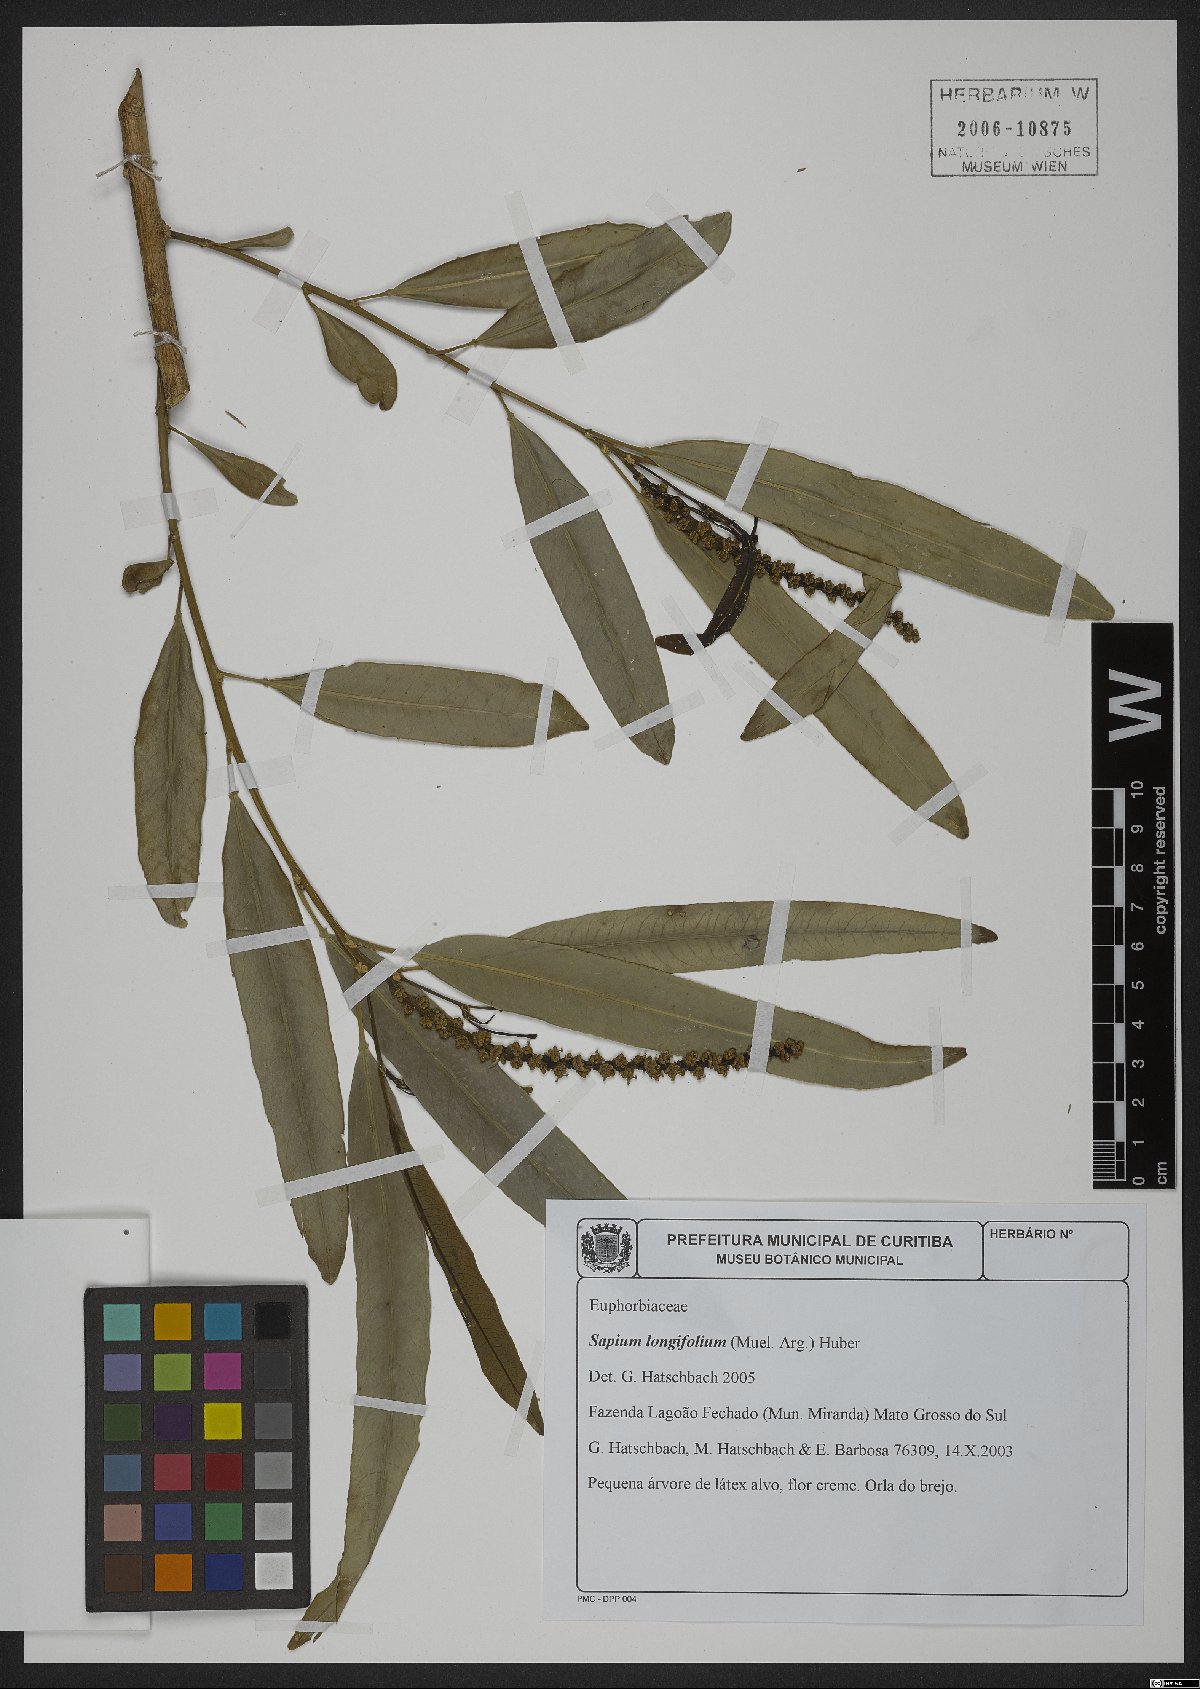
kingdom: Plantae
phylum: Tracheophyta
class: Magnoliopsida
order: Malpighiales
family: Euphorbiaceae
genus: Sapium
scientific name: Sapium haematospermum
